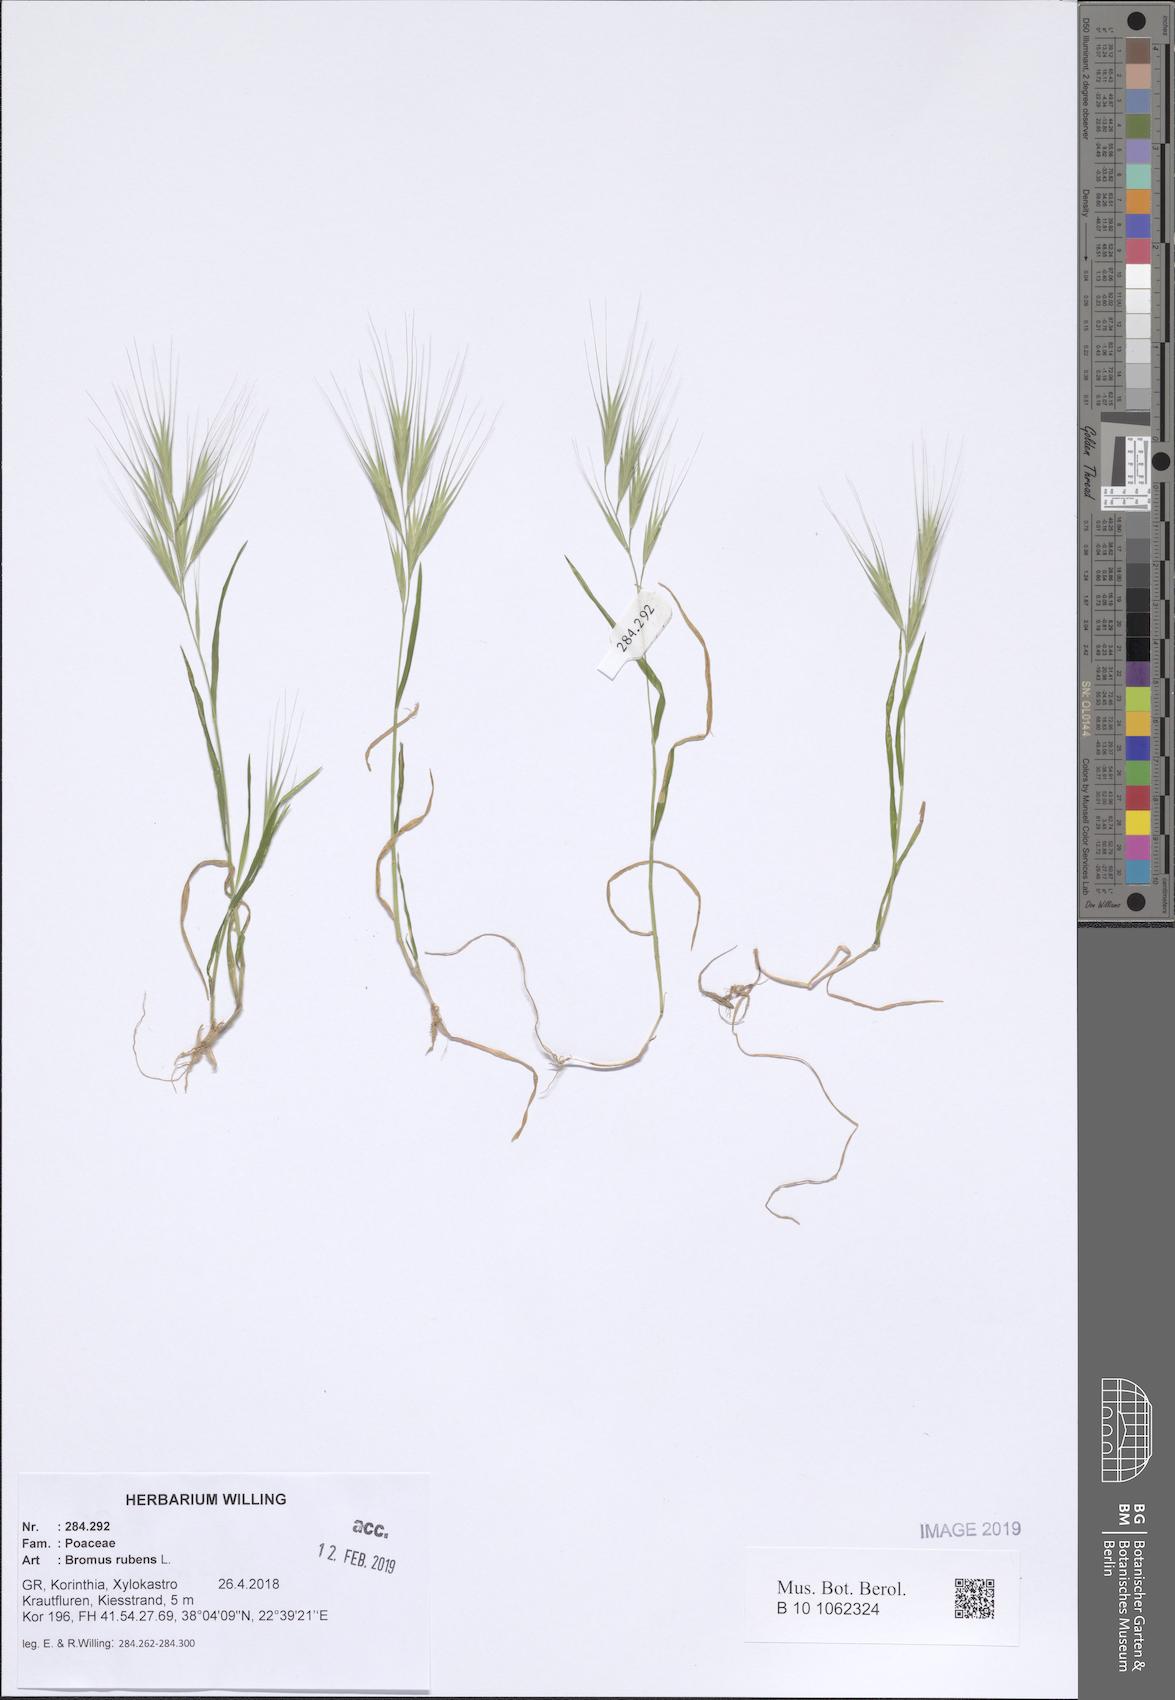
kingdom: Plantae
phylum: Tracheophyta
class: Liliopsida
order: Poales
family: Poaceae
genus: Bromus
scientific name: Bromus rubens
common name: Red brome
